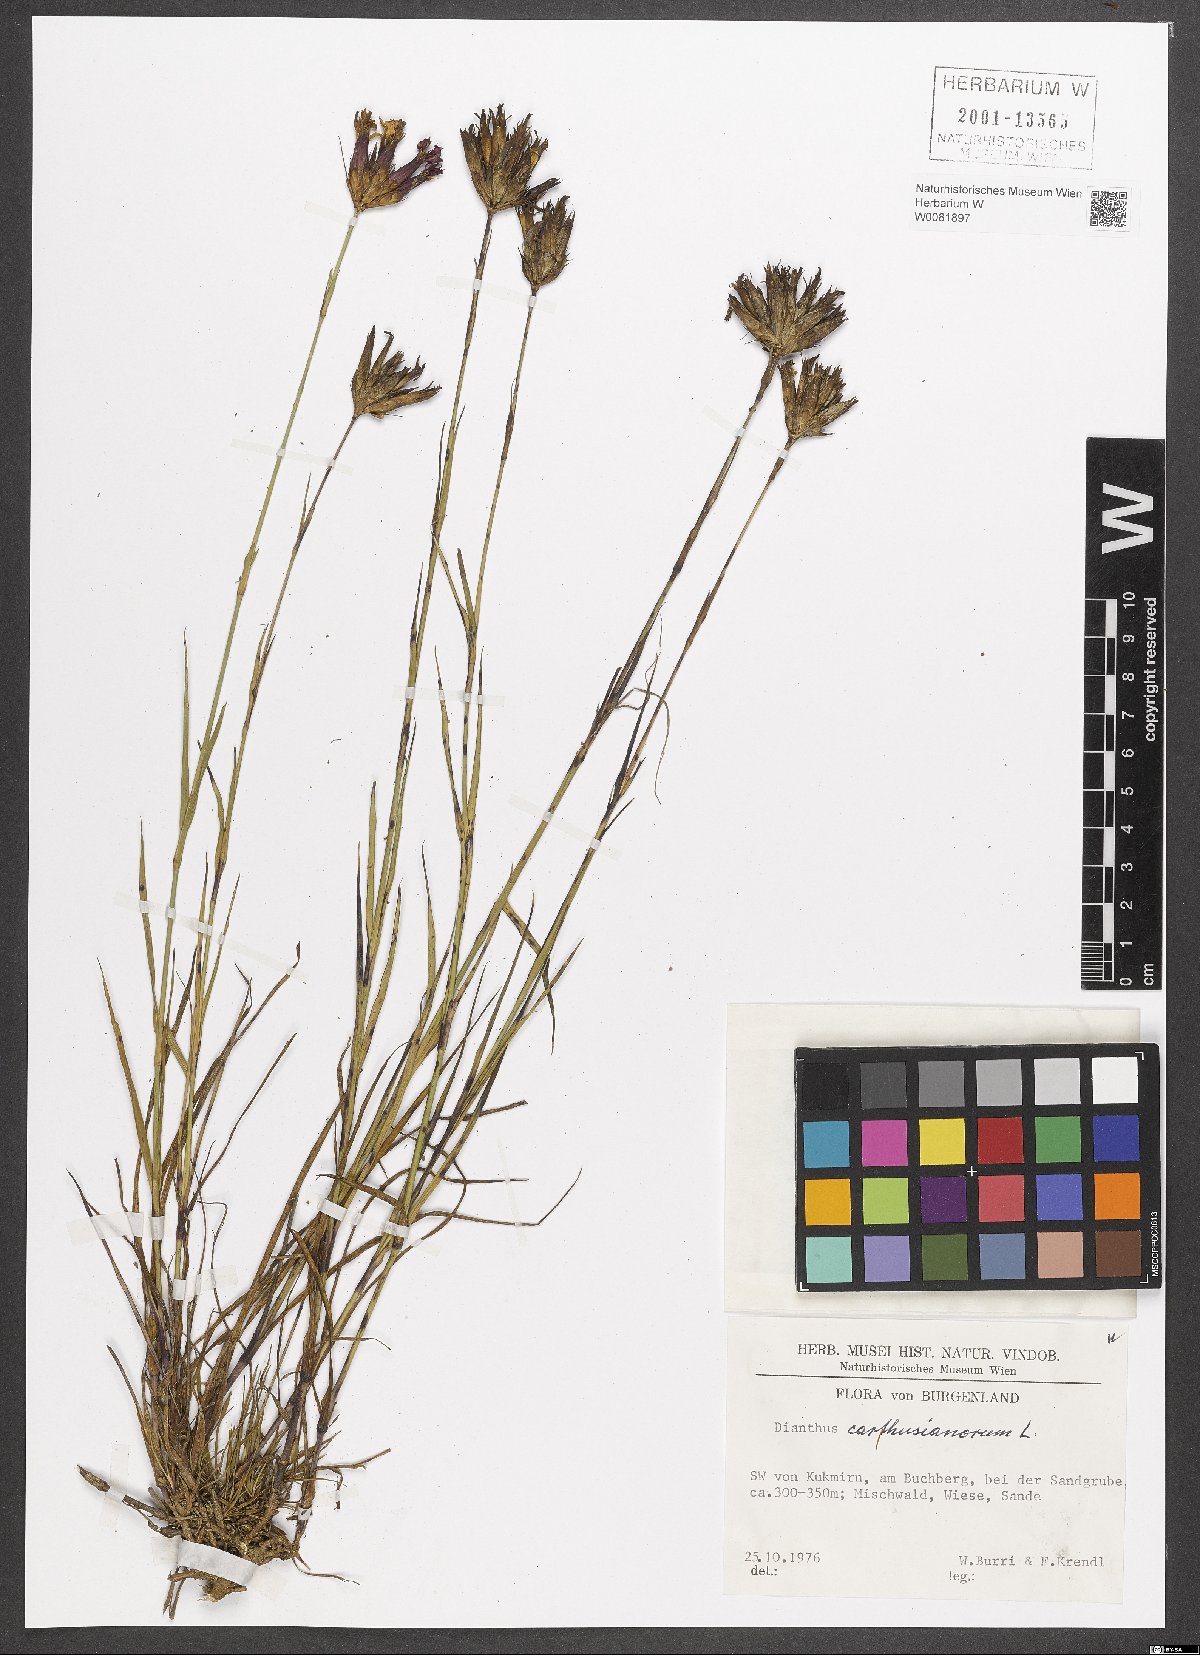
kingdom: Plantae
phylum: Tracheophyta
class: Magnoliopsida
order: Caryophyllales
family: Caryophyllaceae
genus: Dianthus
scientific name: Dianthus carthusianorum
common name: Carthusian pink
